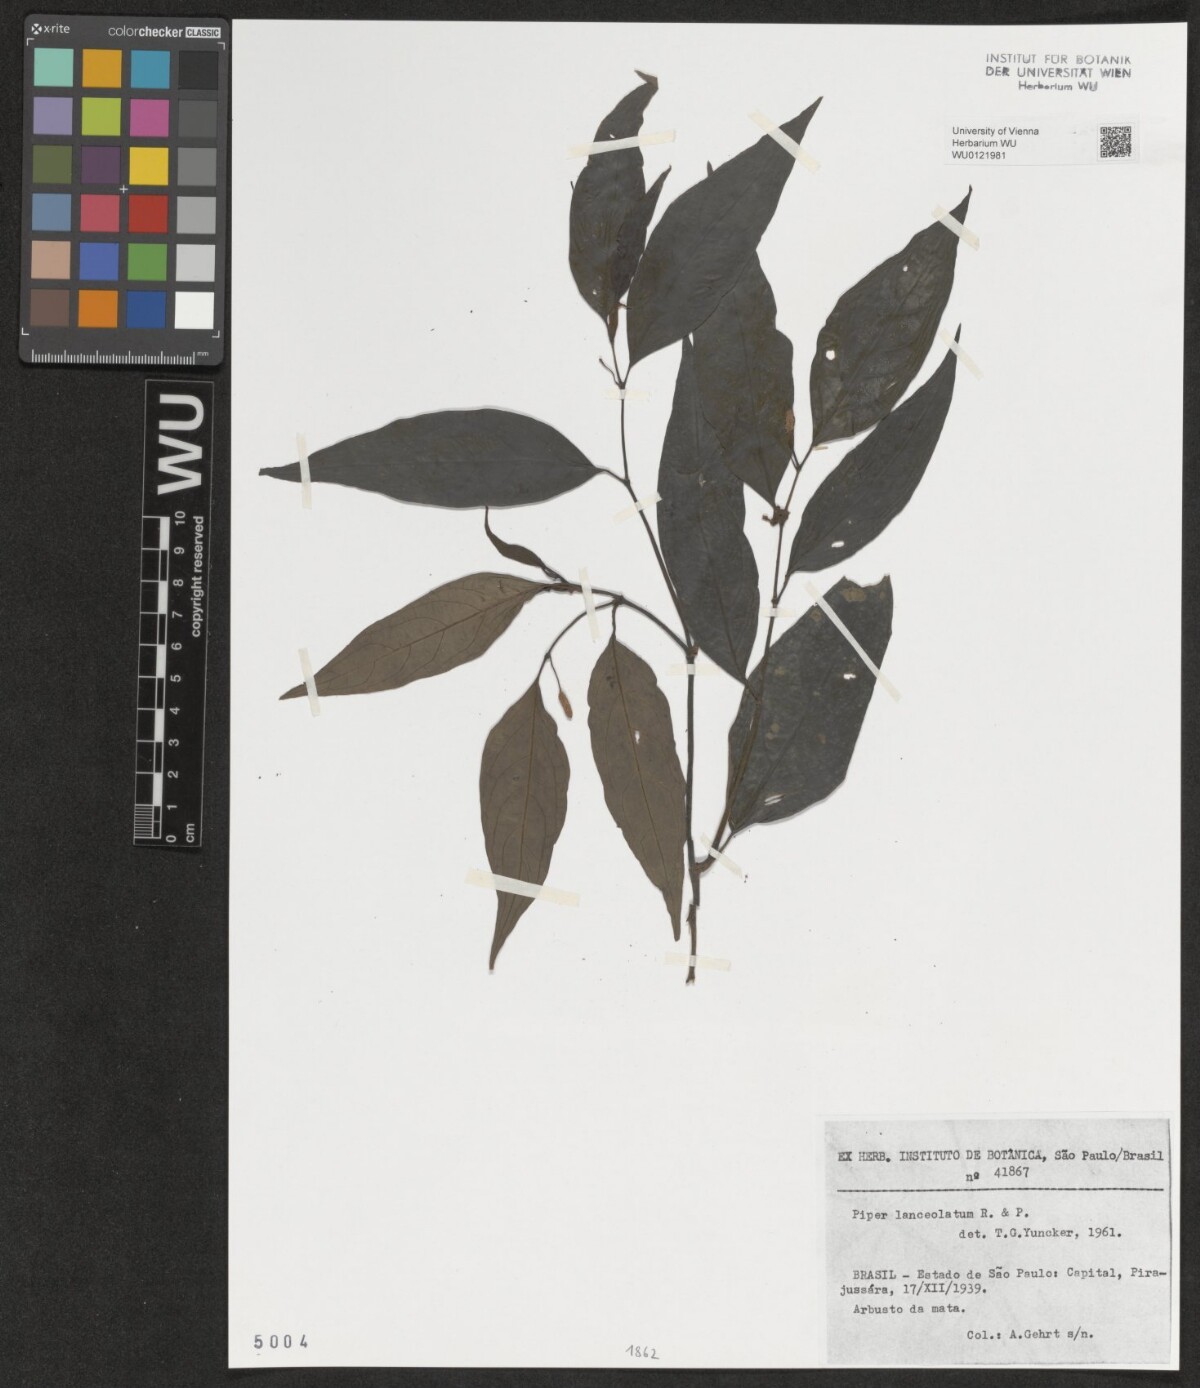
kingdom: Plantae
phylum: Tracheophyta
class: Magnoliopsida
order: Piperales
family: Piperaceae
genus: Piper
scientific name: Piper lanceolatum
